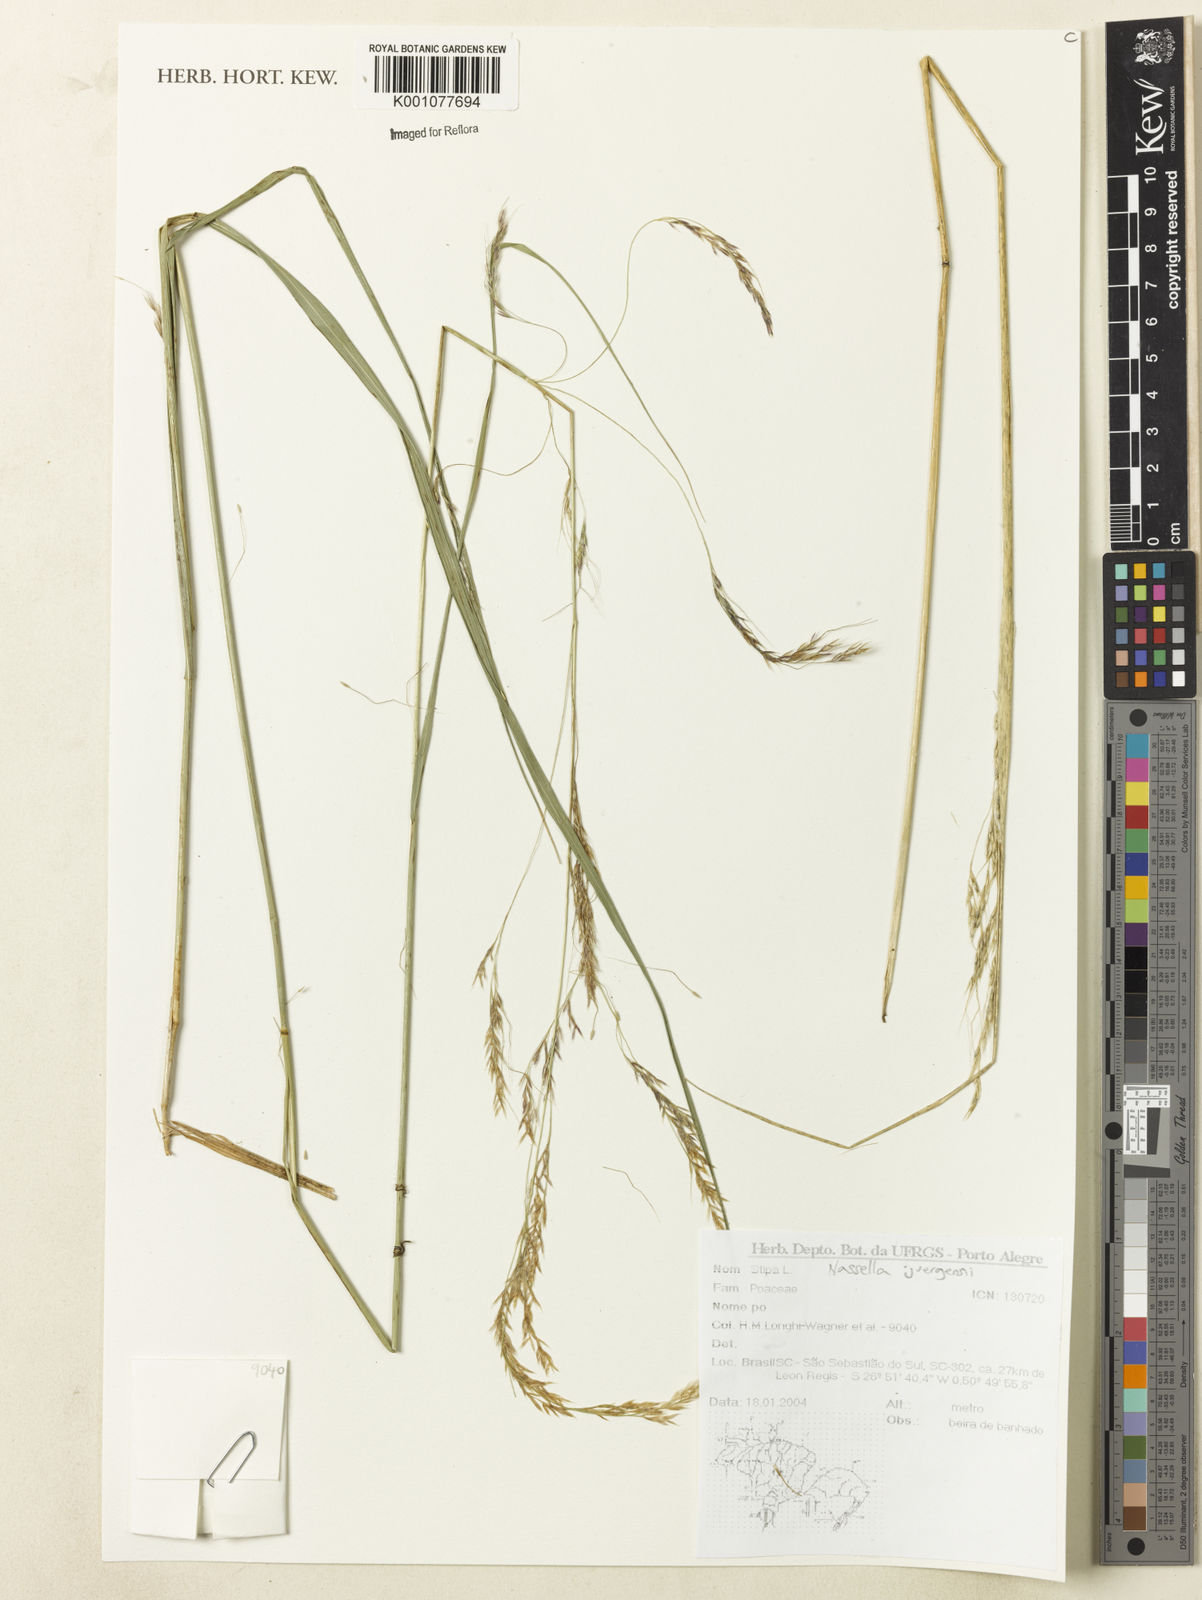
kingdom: Plantae
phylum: Tracheophyta
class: Liliopsida
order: Poales
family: Poaceae
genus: Nassella
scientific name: Nassella juergensii
